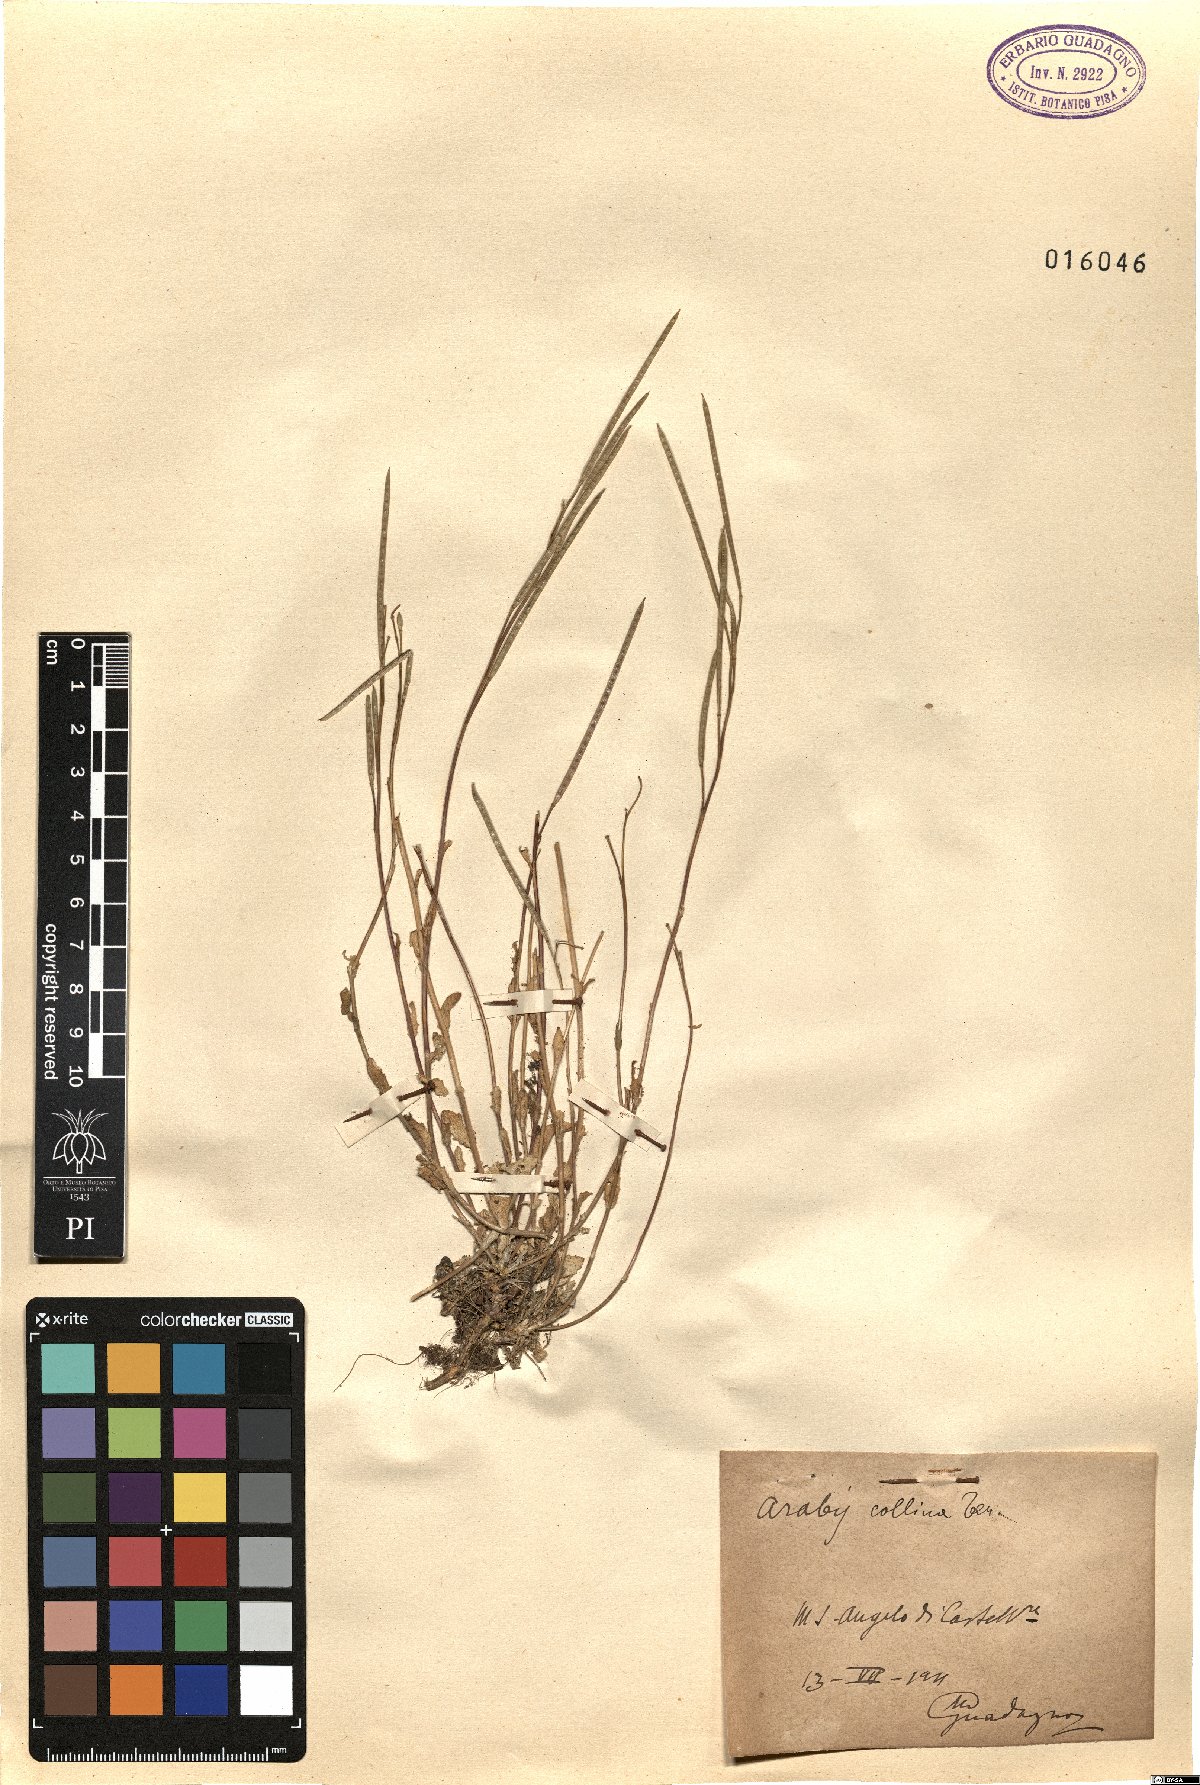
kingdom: Plantae
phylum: Tracheophyta
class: Magnoliopsida
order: Brassicales
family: Brassicaceae
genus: Arabis
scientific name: Arabis collina
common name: Rosy cress
